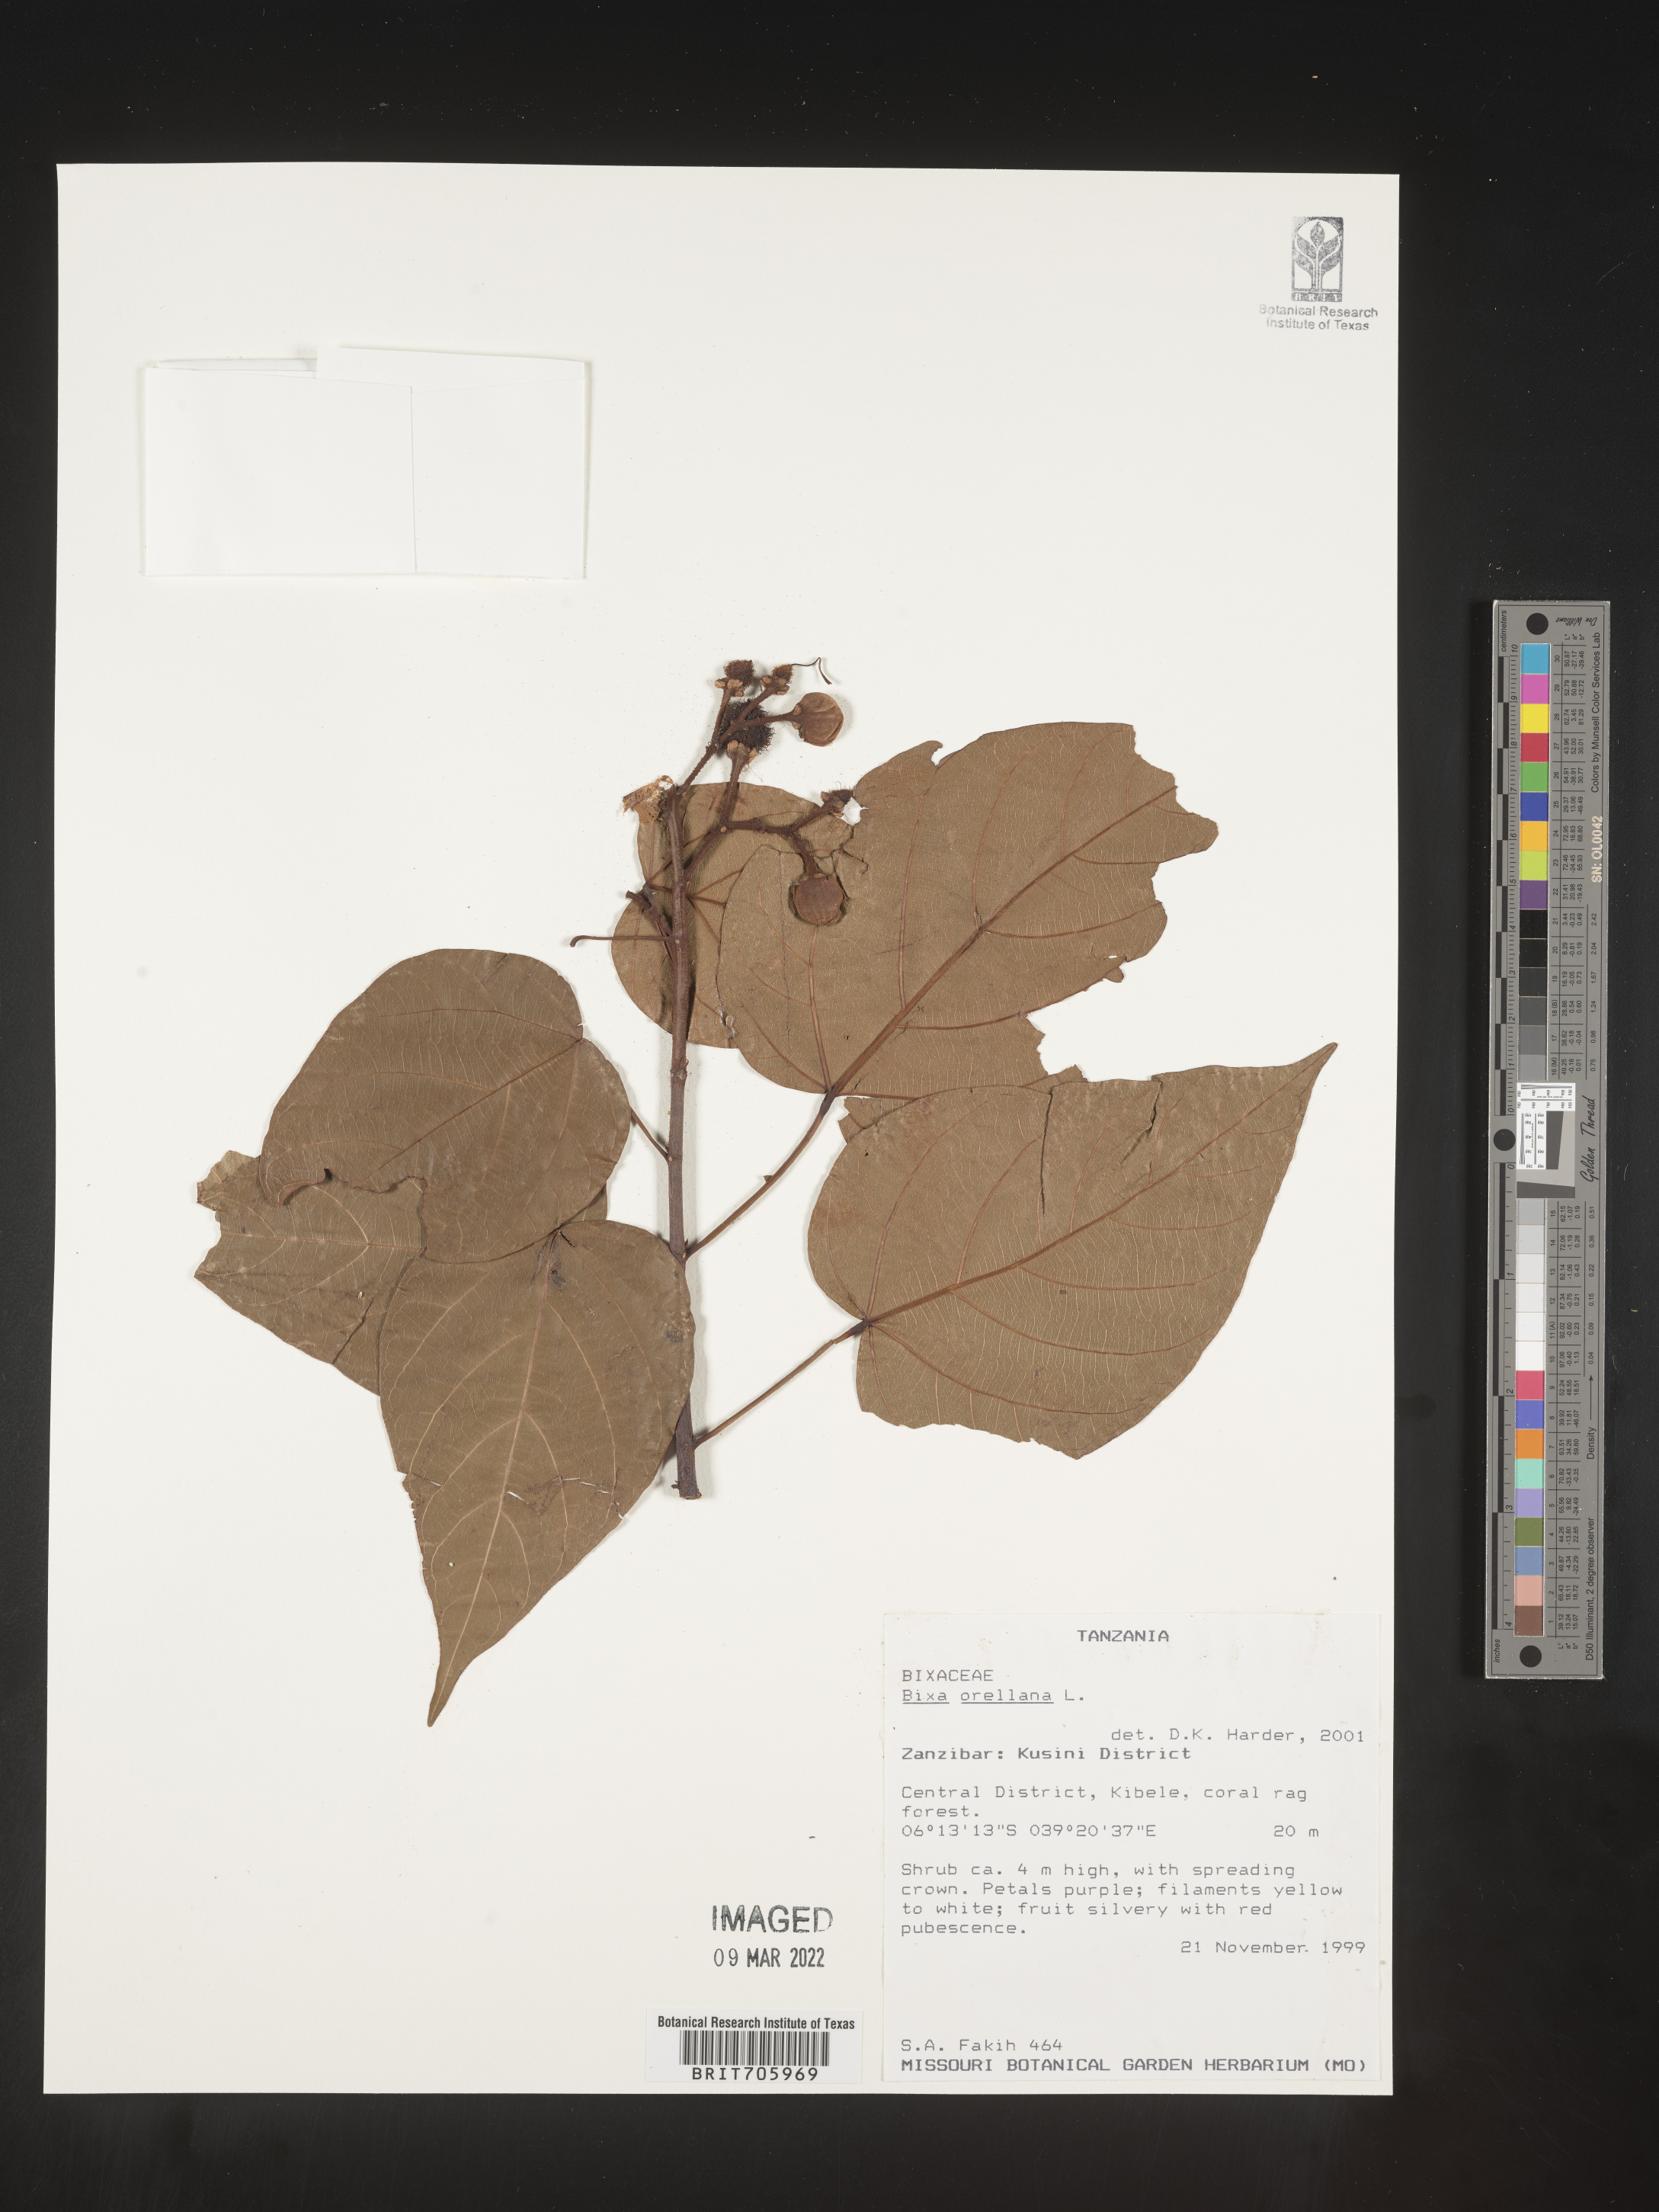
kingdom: Plantae
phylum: Tracheophyta
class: Magnoliopsida
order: Malvales
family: Bixaceae
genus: Bixa
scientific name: Bixa
